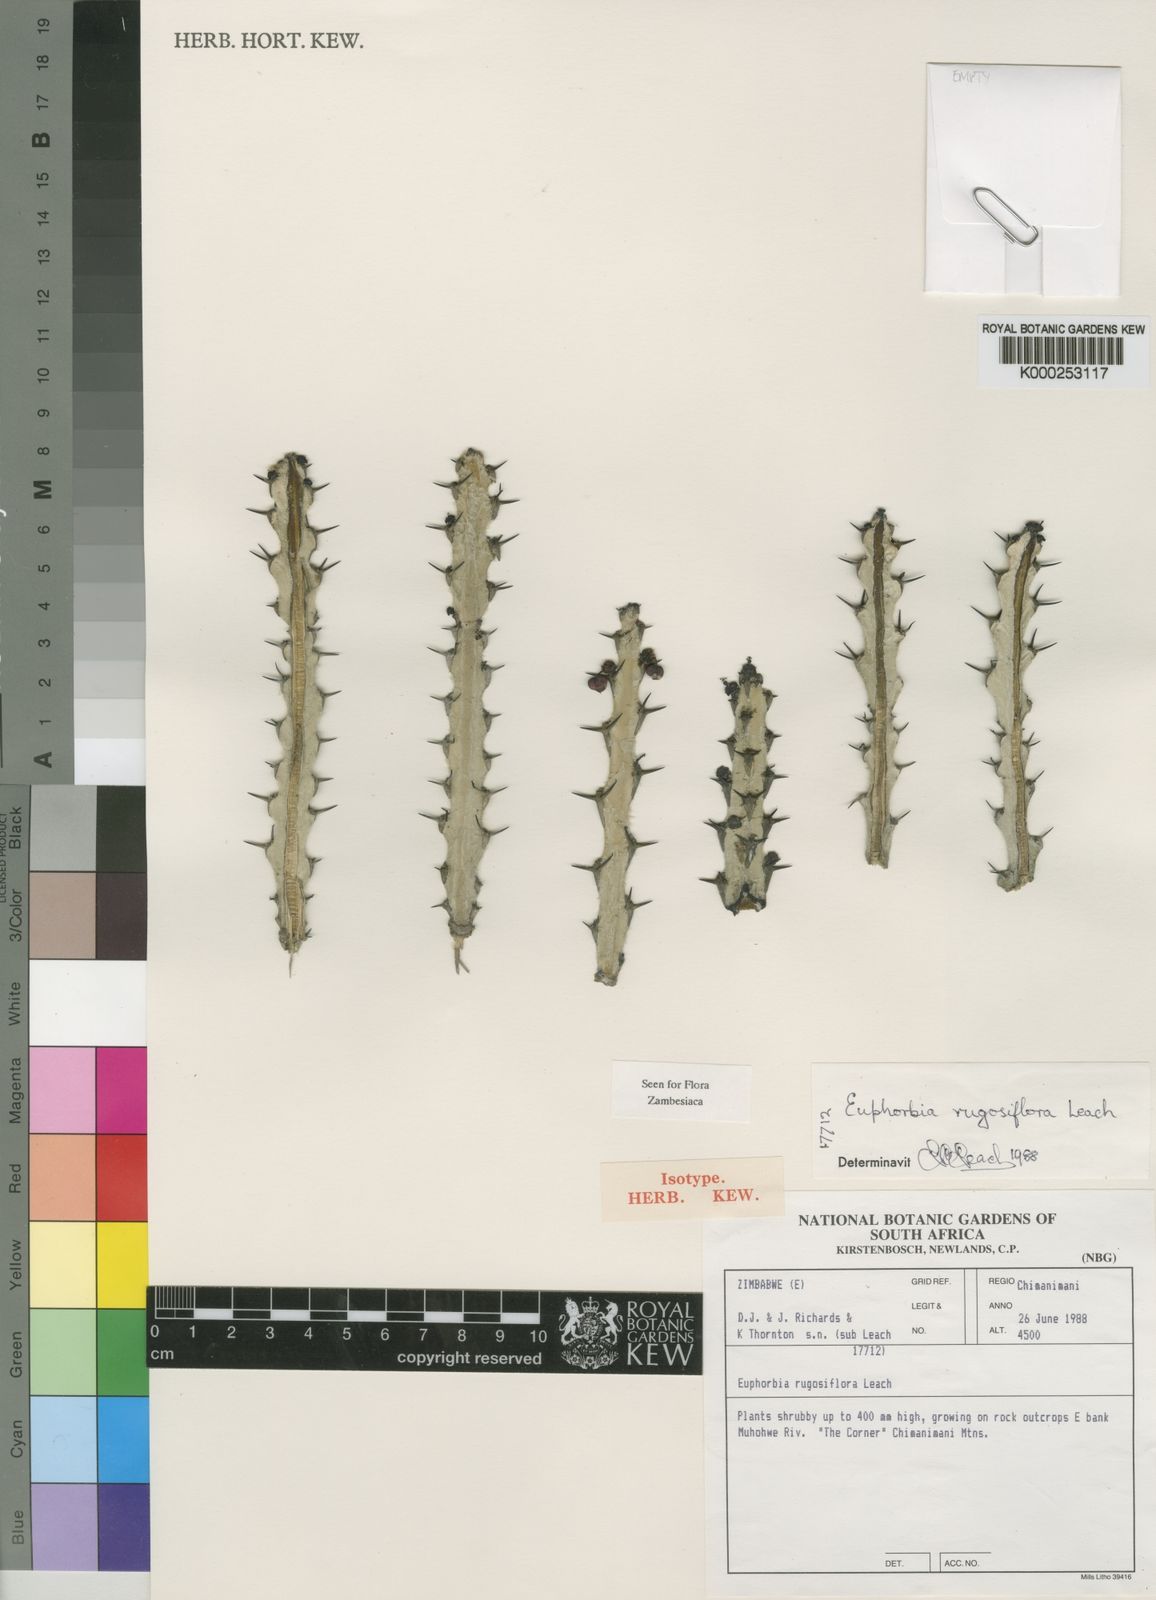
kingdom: Plantae
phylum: Tracheophyta
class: Magnoliopsida
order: Malpighiales
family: Euphorbiaceae
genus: Euphorbia
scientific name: Euphorbia rugosiflora
